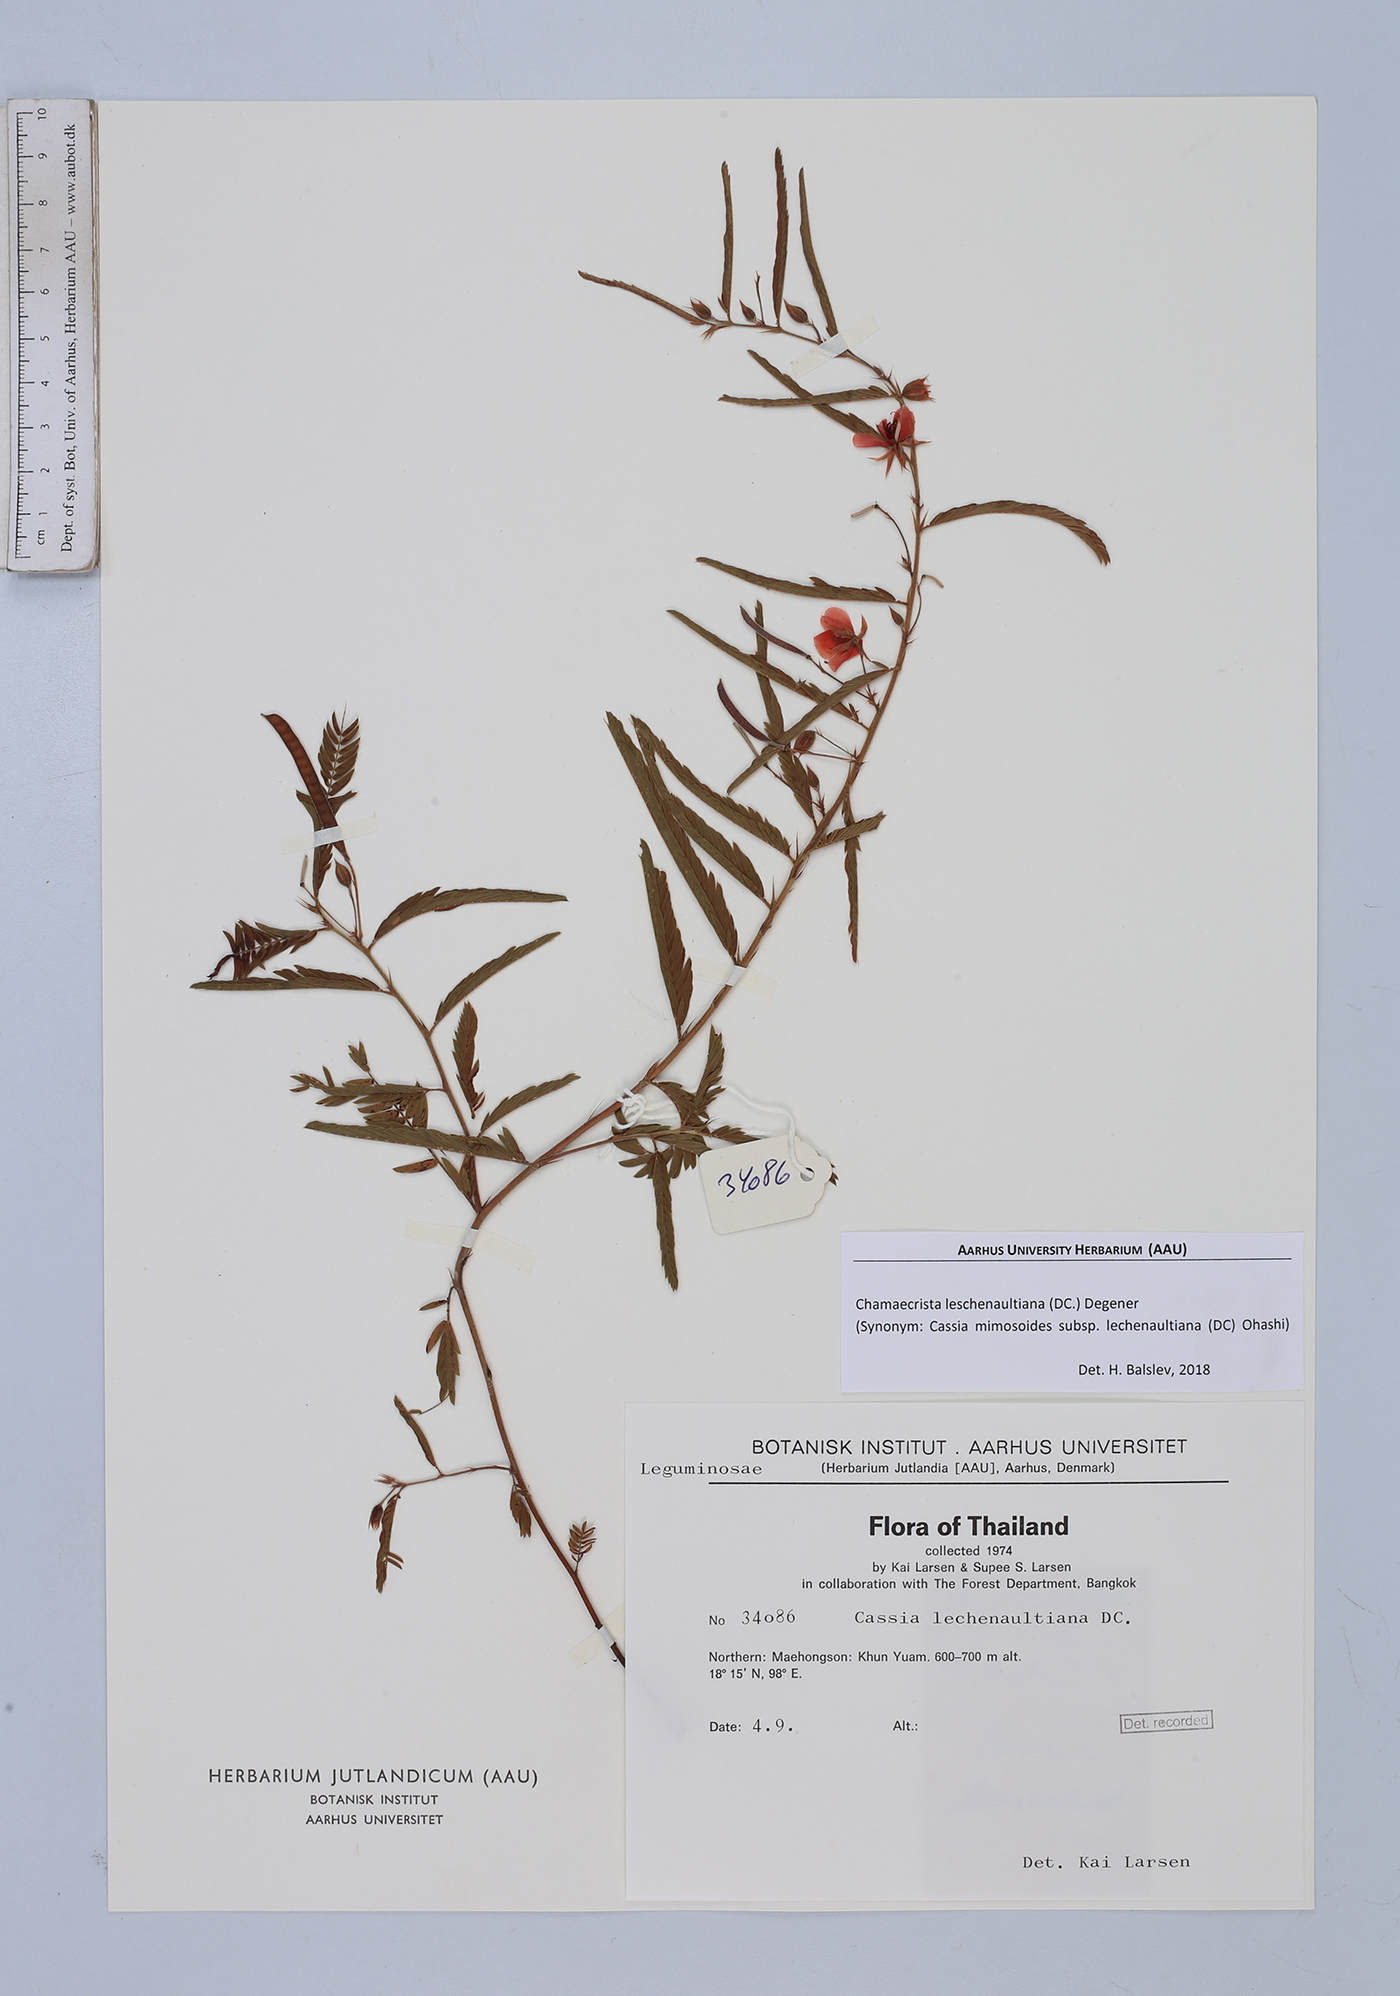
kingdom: Plantae
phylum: Tracheophyta
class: Magnoliopsida
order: Fabales
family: Fabaceae
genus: Chamaecrista
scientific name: Chamaecrista nictitans
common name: Sensitive cassia
